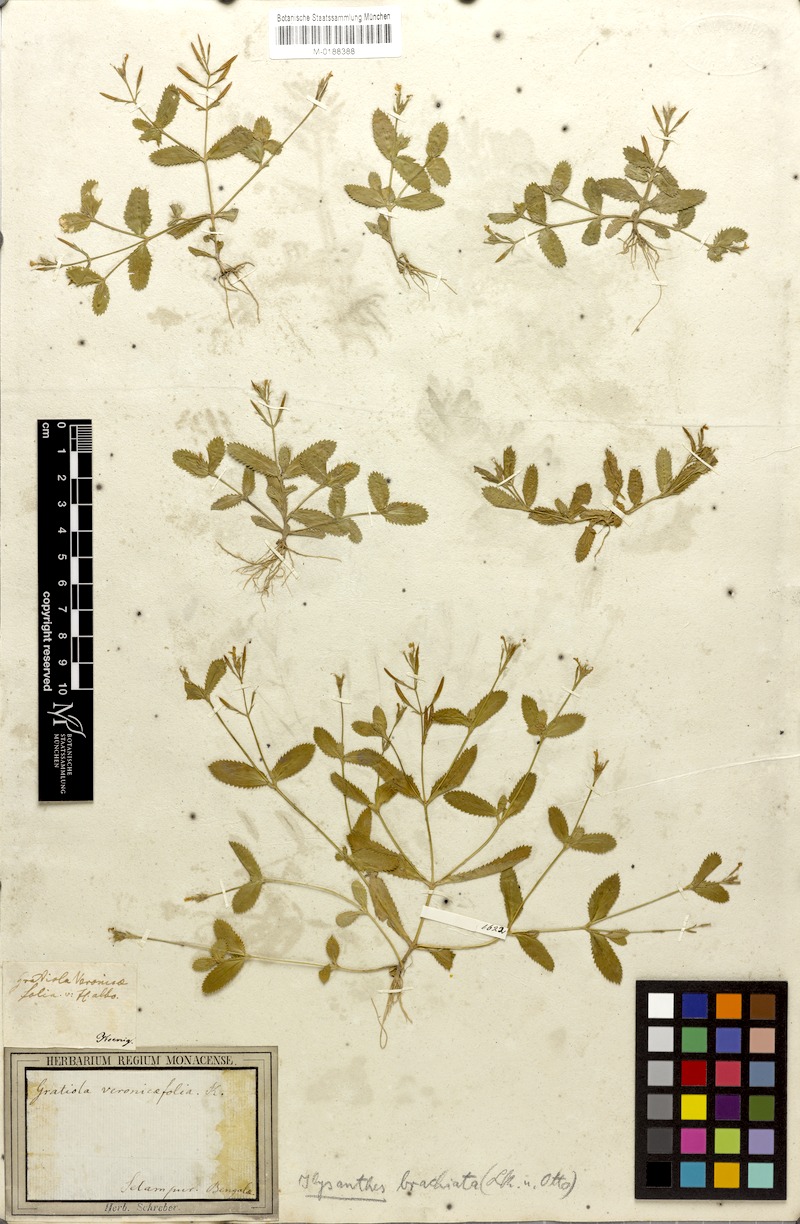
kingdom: Plantae
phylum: Tracheophyta
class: Magnoliopsida
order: Lamiales
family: Linderniaceae
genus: Lindernia
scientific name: Lindernia
